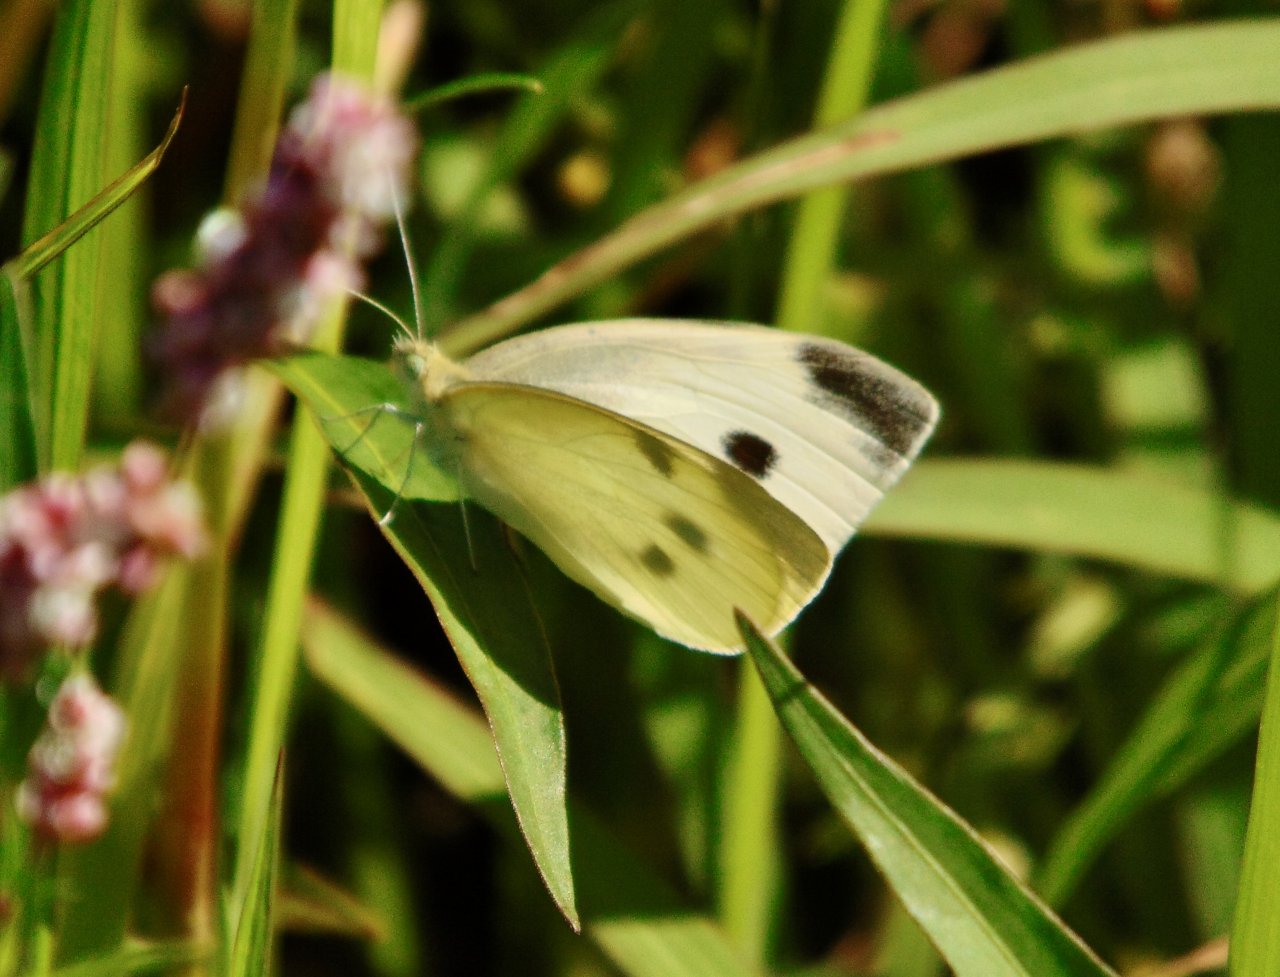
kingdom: Animalia
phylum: Arthropoda
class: Insecta
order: Lepidoptera
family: Pieridae
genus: Pieris
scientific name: Pieris rapae
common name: Cabbage White
